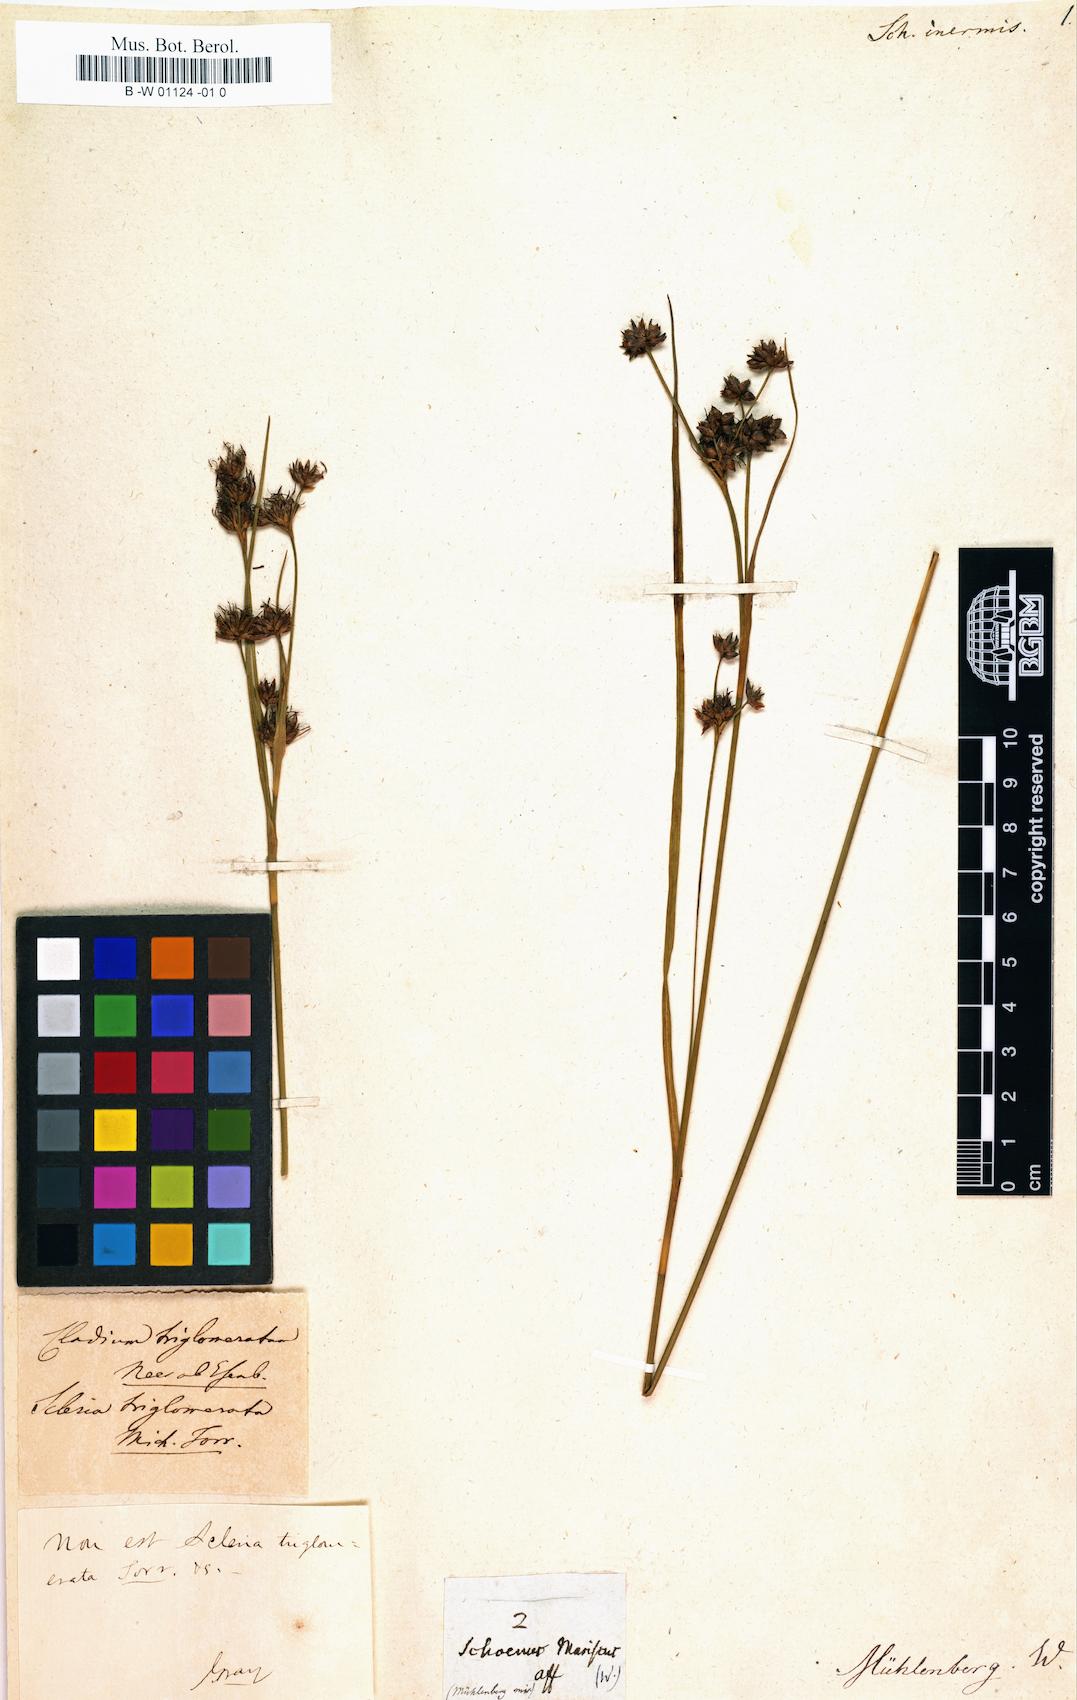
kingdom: Plantae
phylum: Tracheophyta
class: Liliopsida
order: Poales
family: Cyperaceae
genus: Scleria
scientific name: Scleria triglomerata
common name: Whip nutrush
